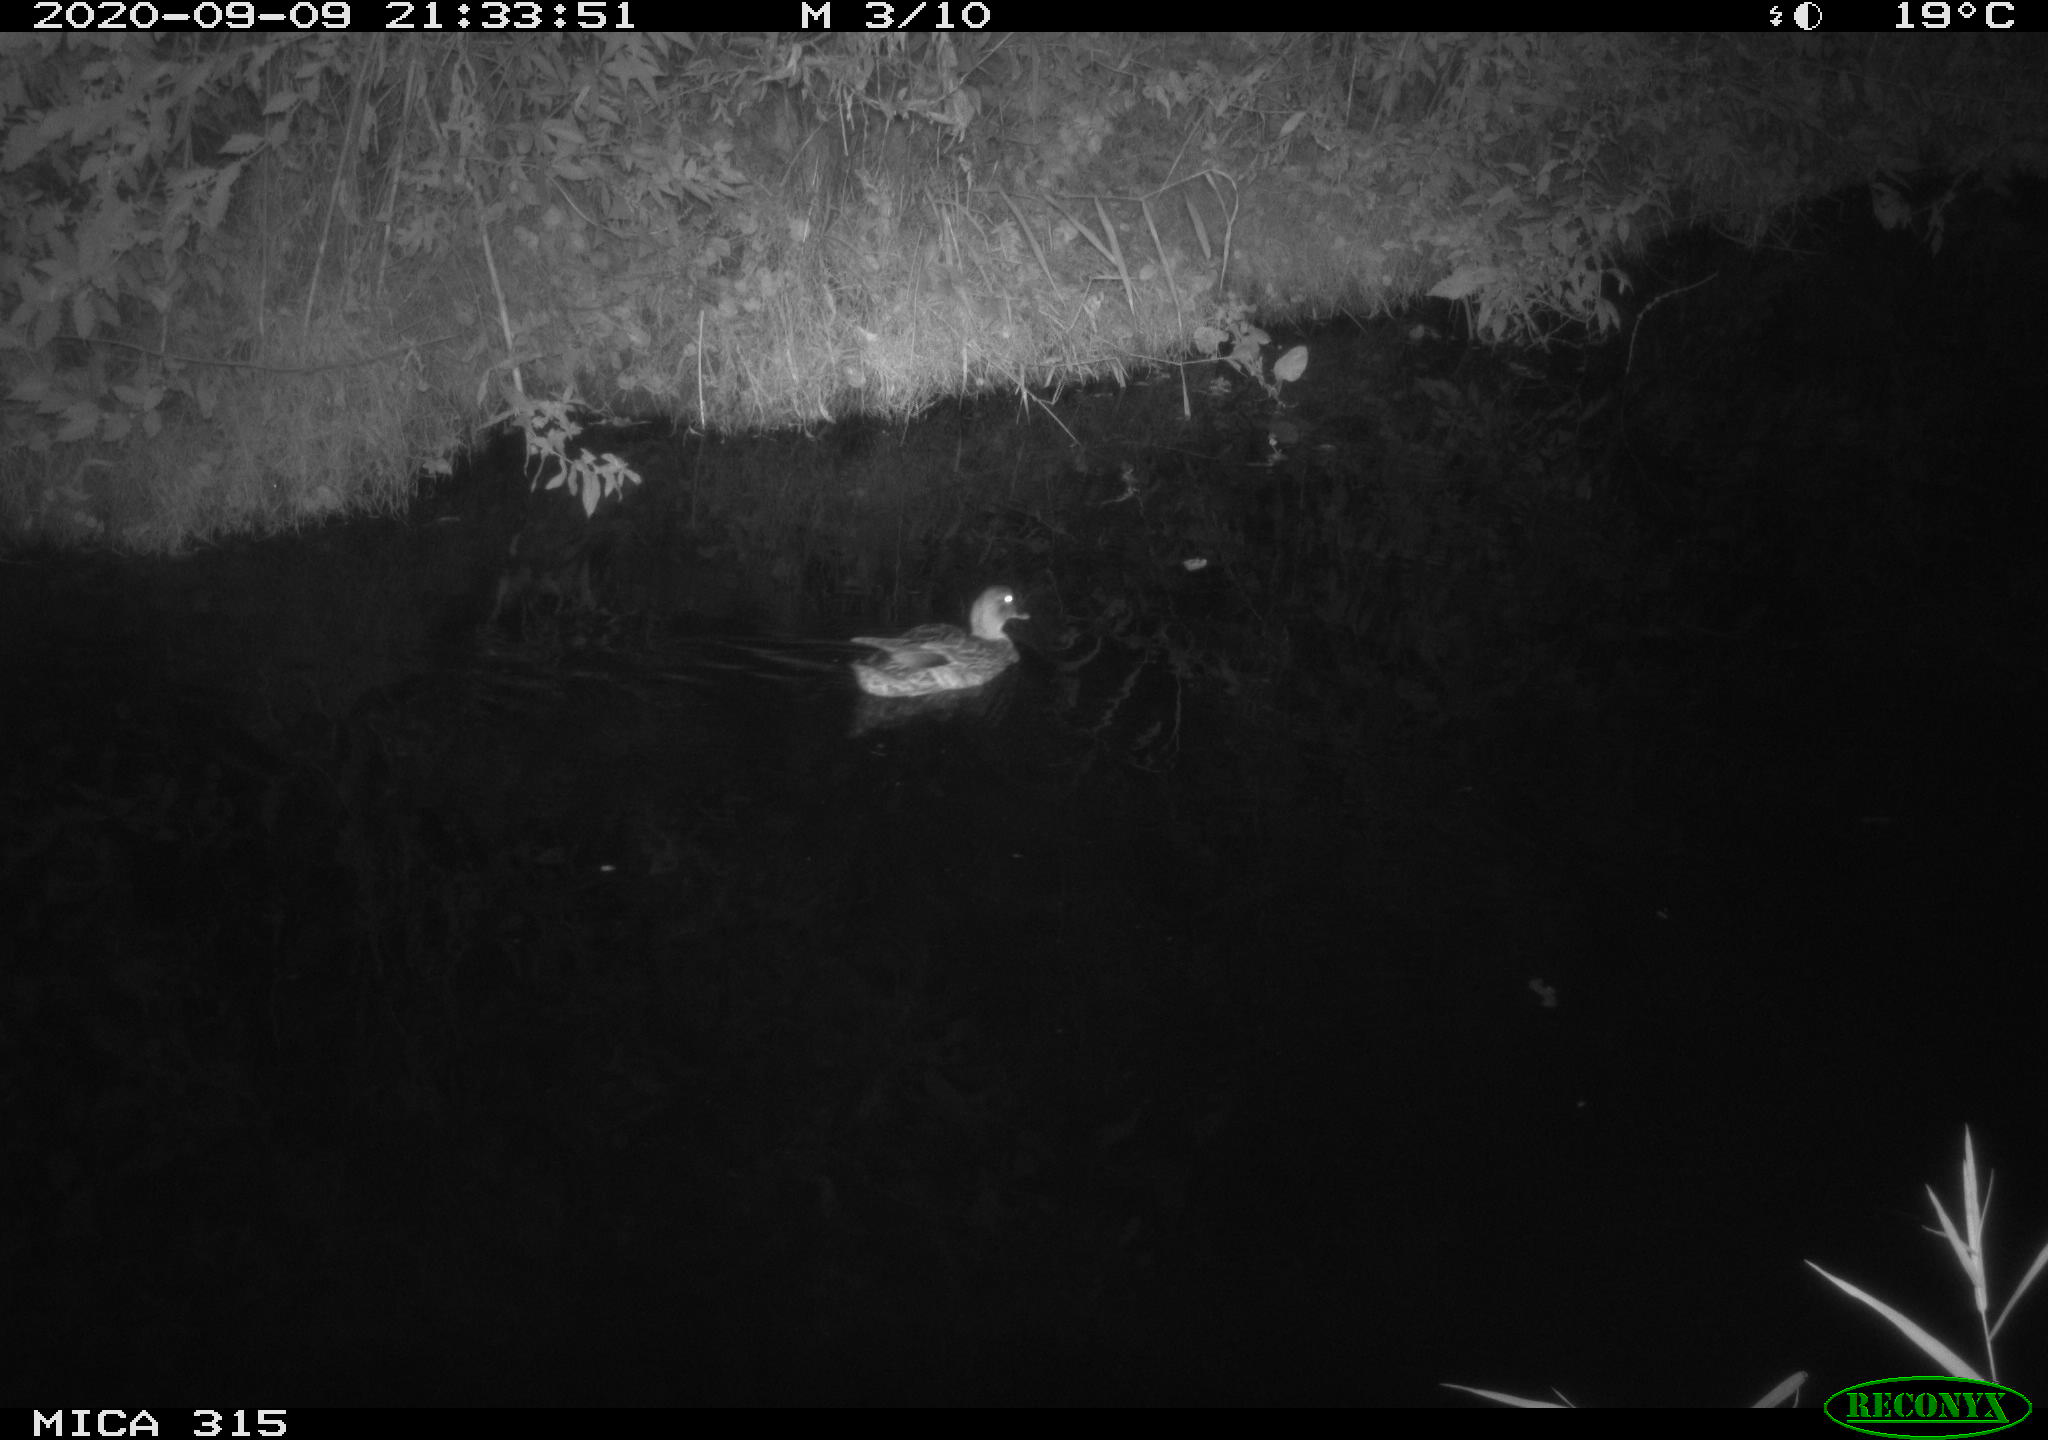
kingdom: Animalia
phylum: Chordata
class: Aves
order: Anseriformes
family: Anatidae
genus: Anas
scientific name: Anas platyrhynchos
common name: Mallard
